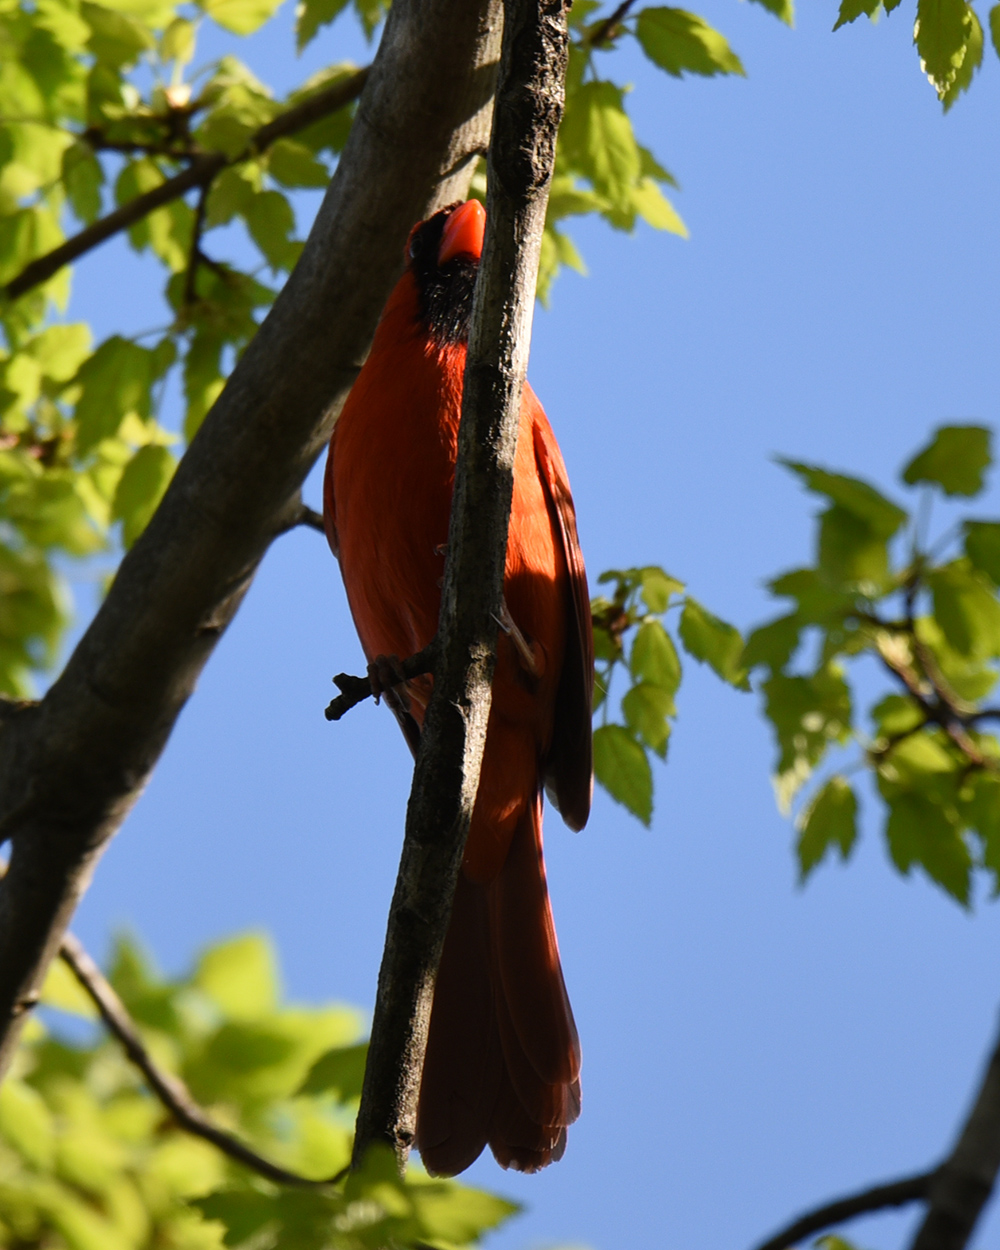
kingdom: Animalia
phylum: Chordata
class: Aves
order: Passeriformes
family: Cardinalidae
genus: Cardinalis
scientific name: Cardinalis cardinalis
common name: Northern cardinal
